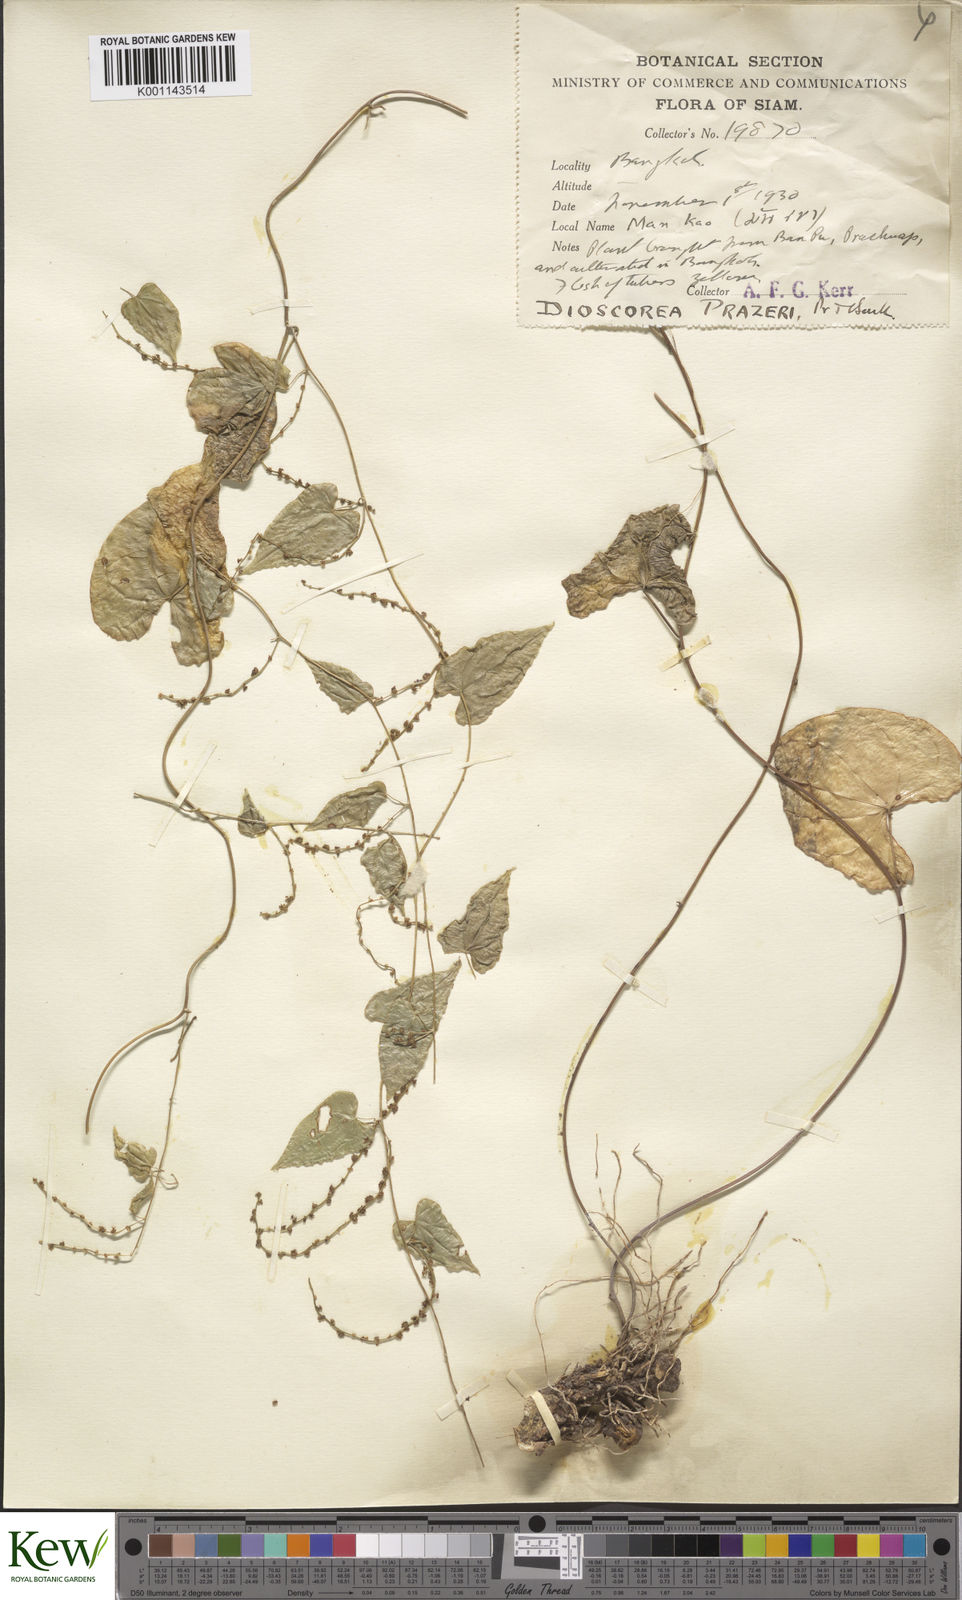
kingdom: Plantae
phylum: Tracheophyta
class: Liliopsida
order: Dioscoreales
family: Dioscoreaceae
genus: Dioscorea
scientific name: Dioscorea prazeri
